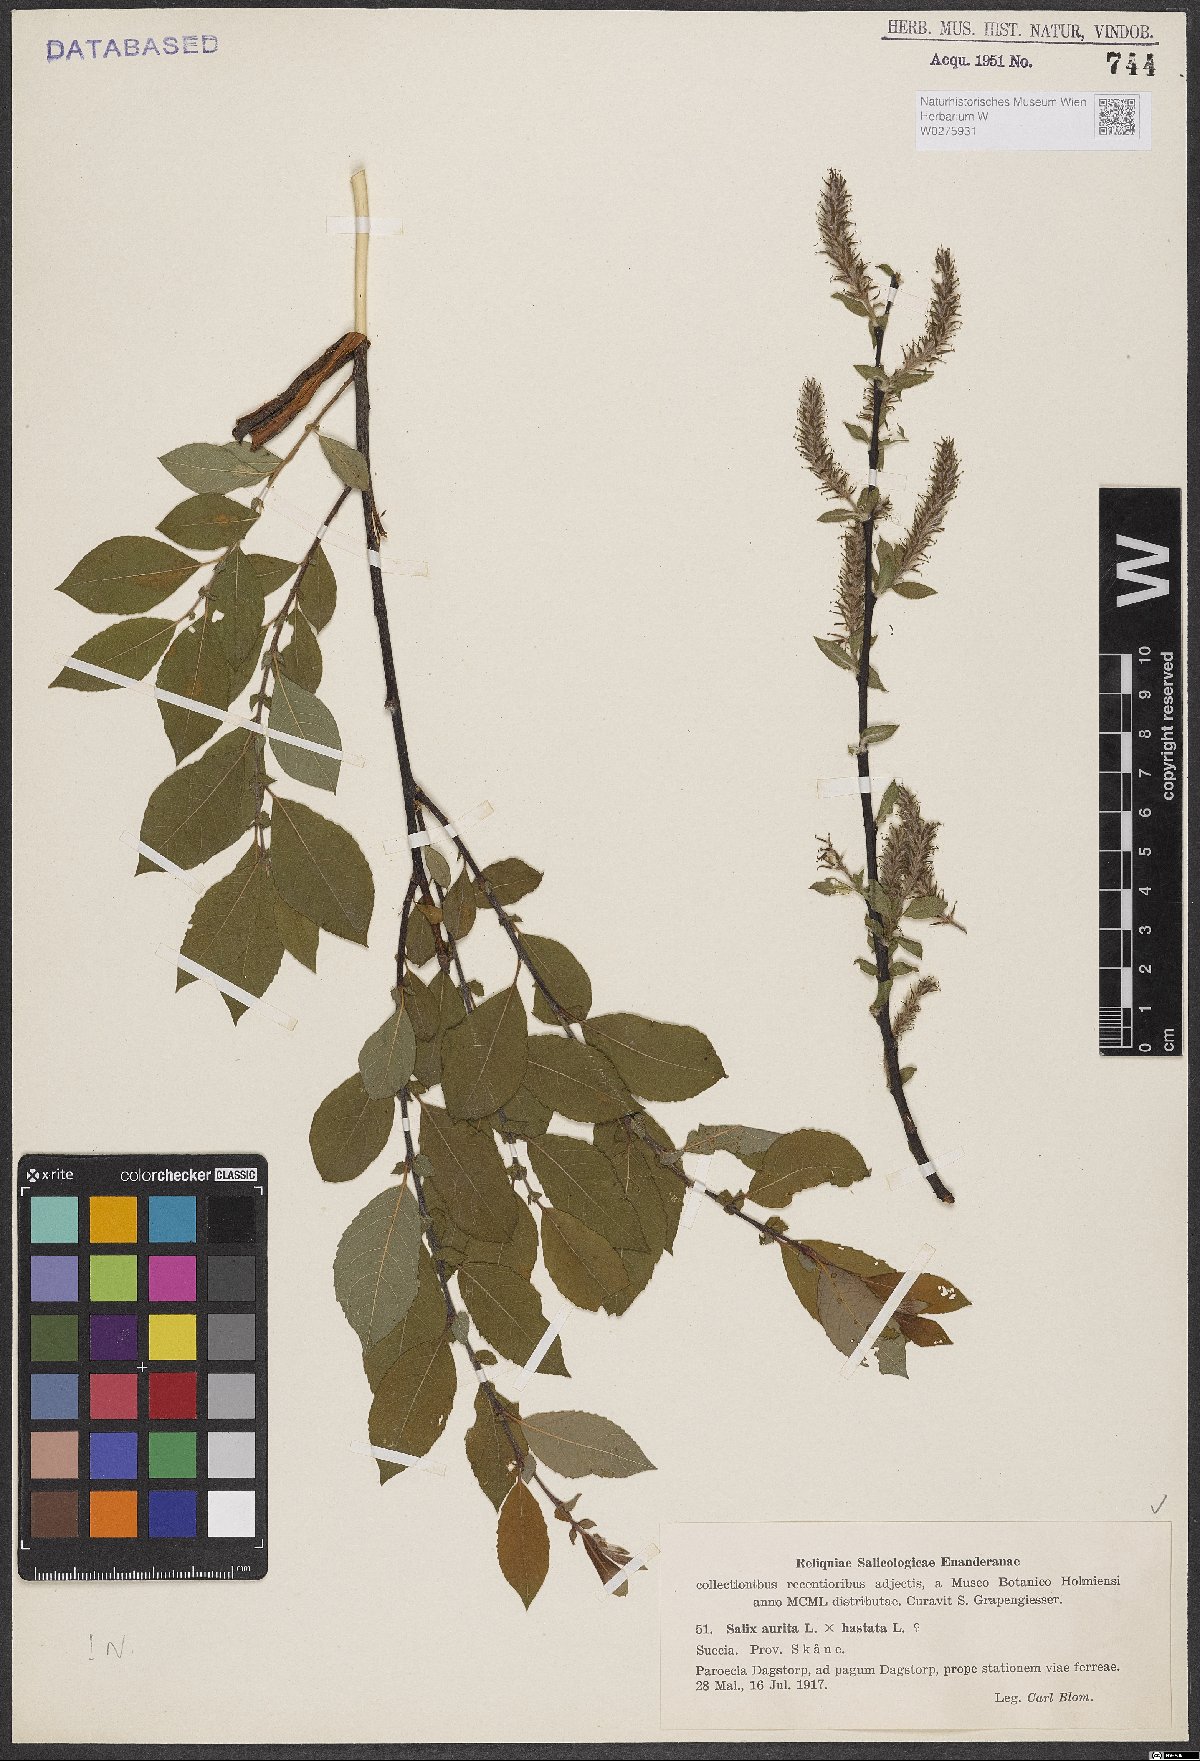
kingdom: Plantae
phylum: Tracheophyta
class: Magnoliopsida
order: Malpighiales
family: Salicaceae
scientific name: Salicaceae
